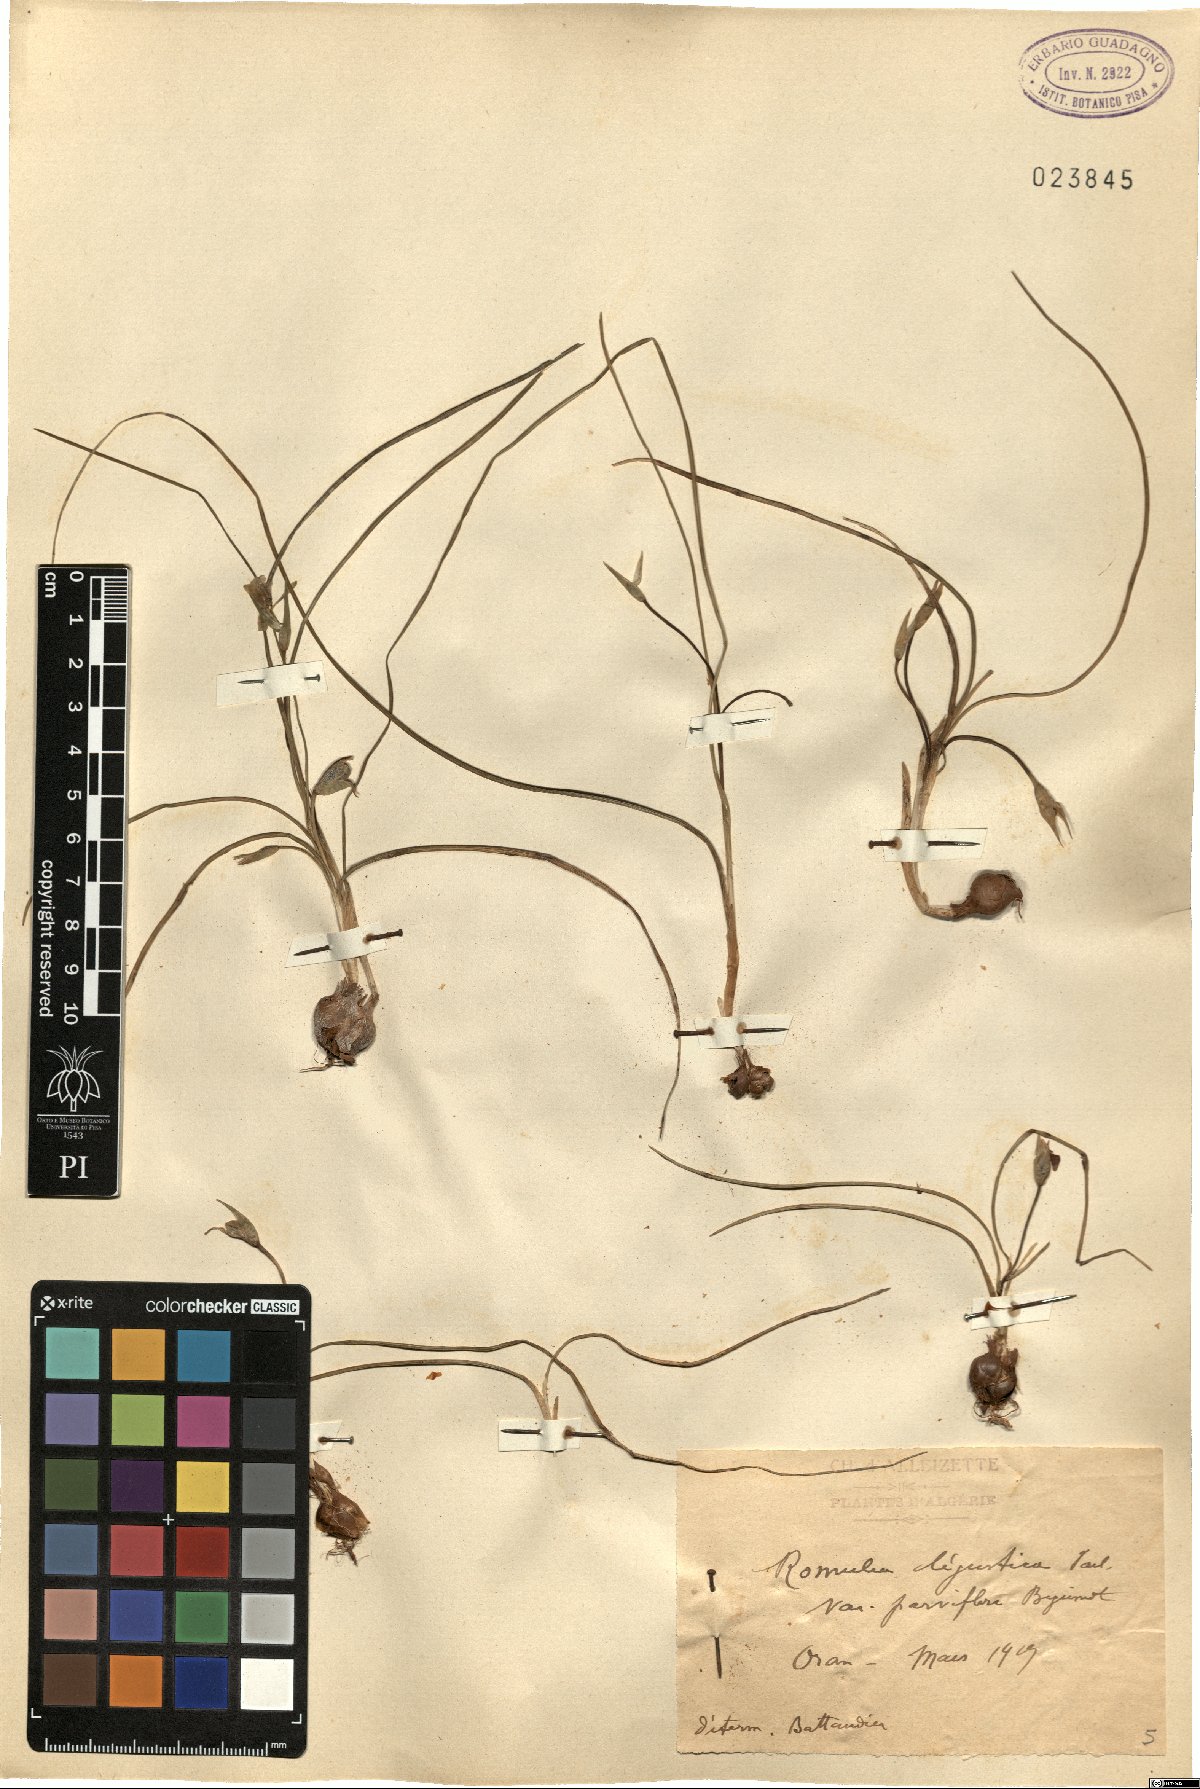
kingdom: Plantae
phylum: Tracheophyta
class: Liliopsida
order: Asparagales
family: Iridaceae
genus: Romulea
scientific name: Romulea ligustica
